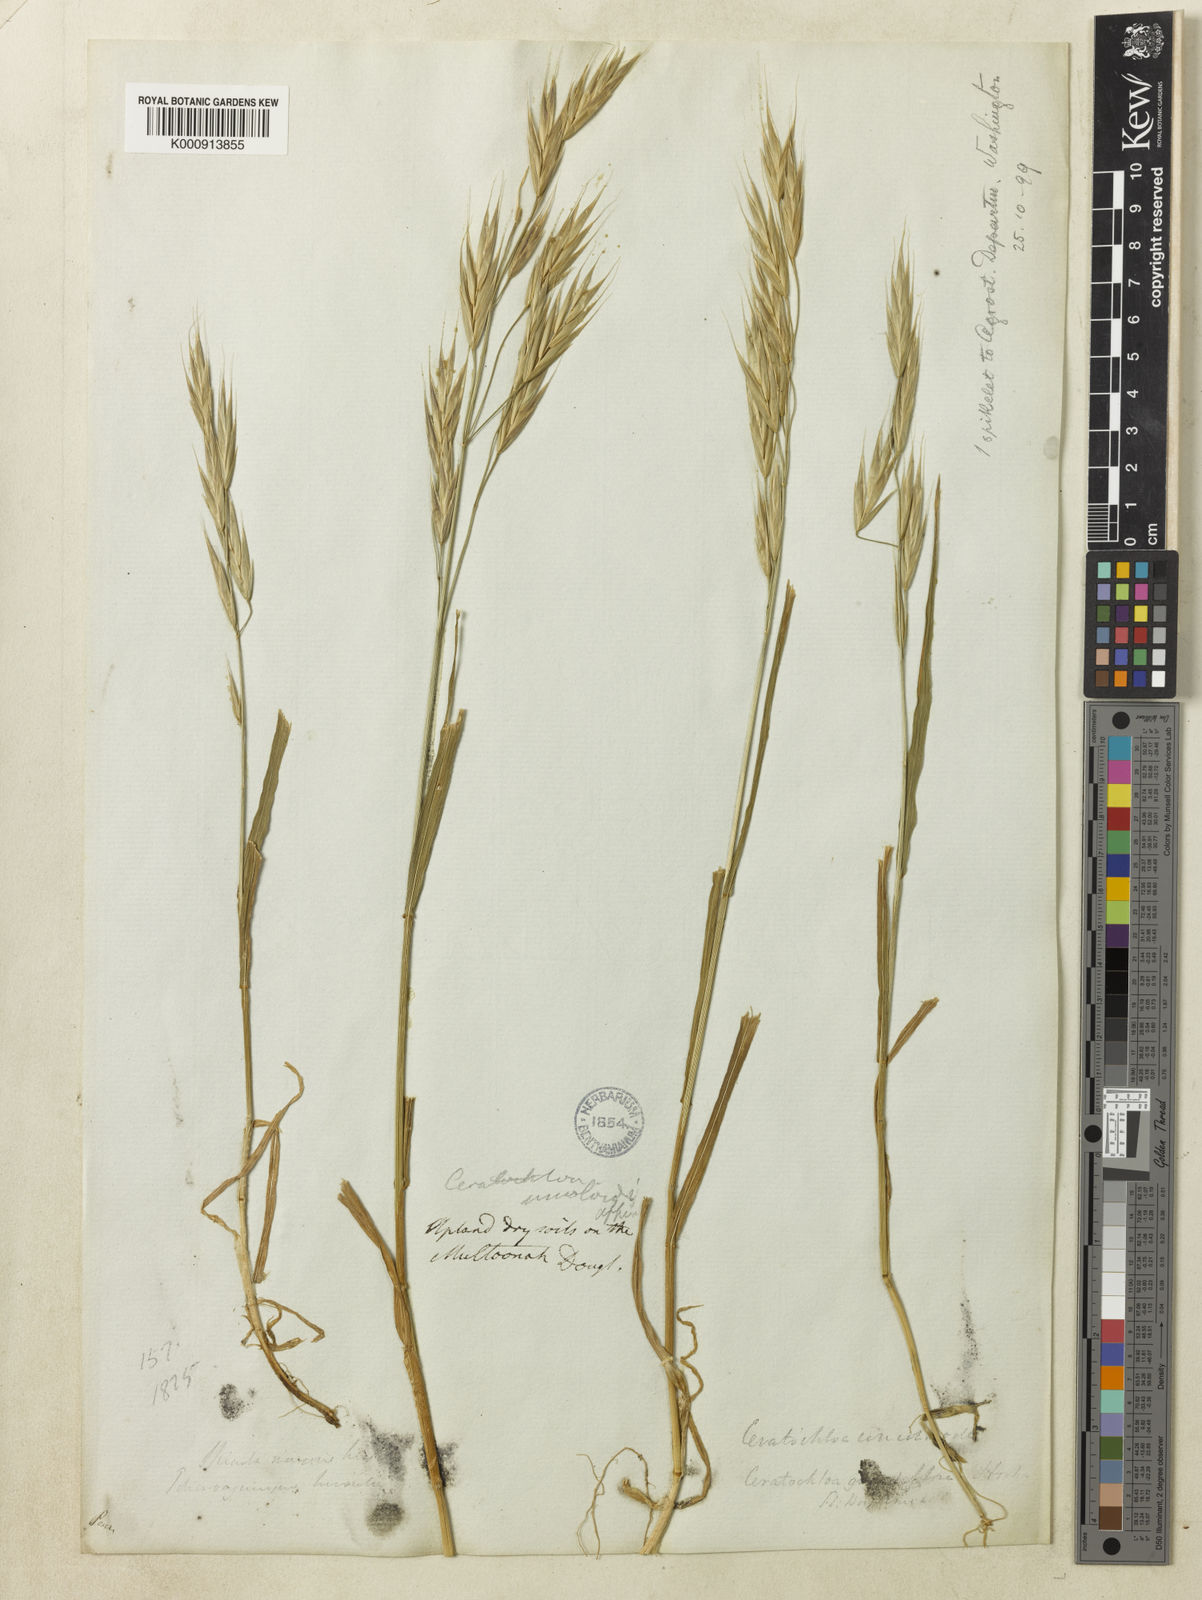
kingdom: Plantae
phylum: Tracheophyta
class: Liliopsida
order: Poales
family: Poaceae
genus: Bromus
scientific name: Bromus carinatus
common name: Mountain brome
